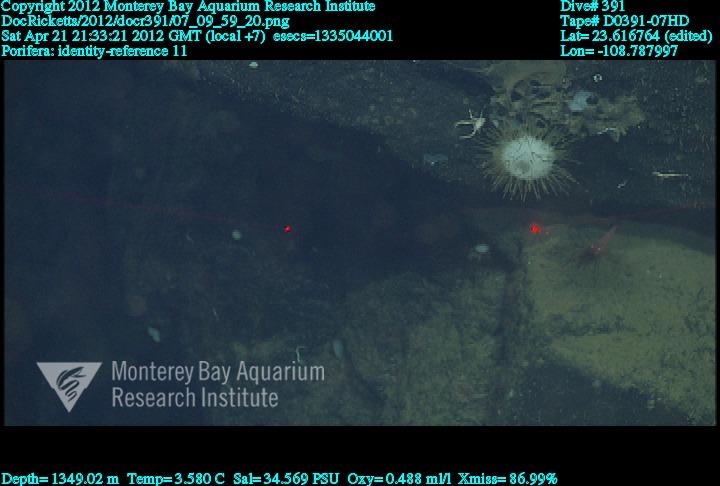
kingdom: Animalia
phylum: Porifera
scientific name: Porifera
